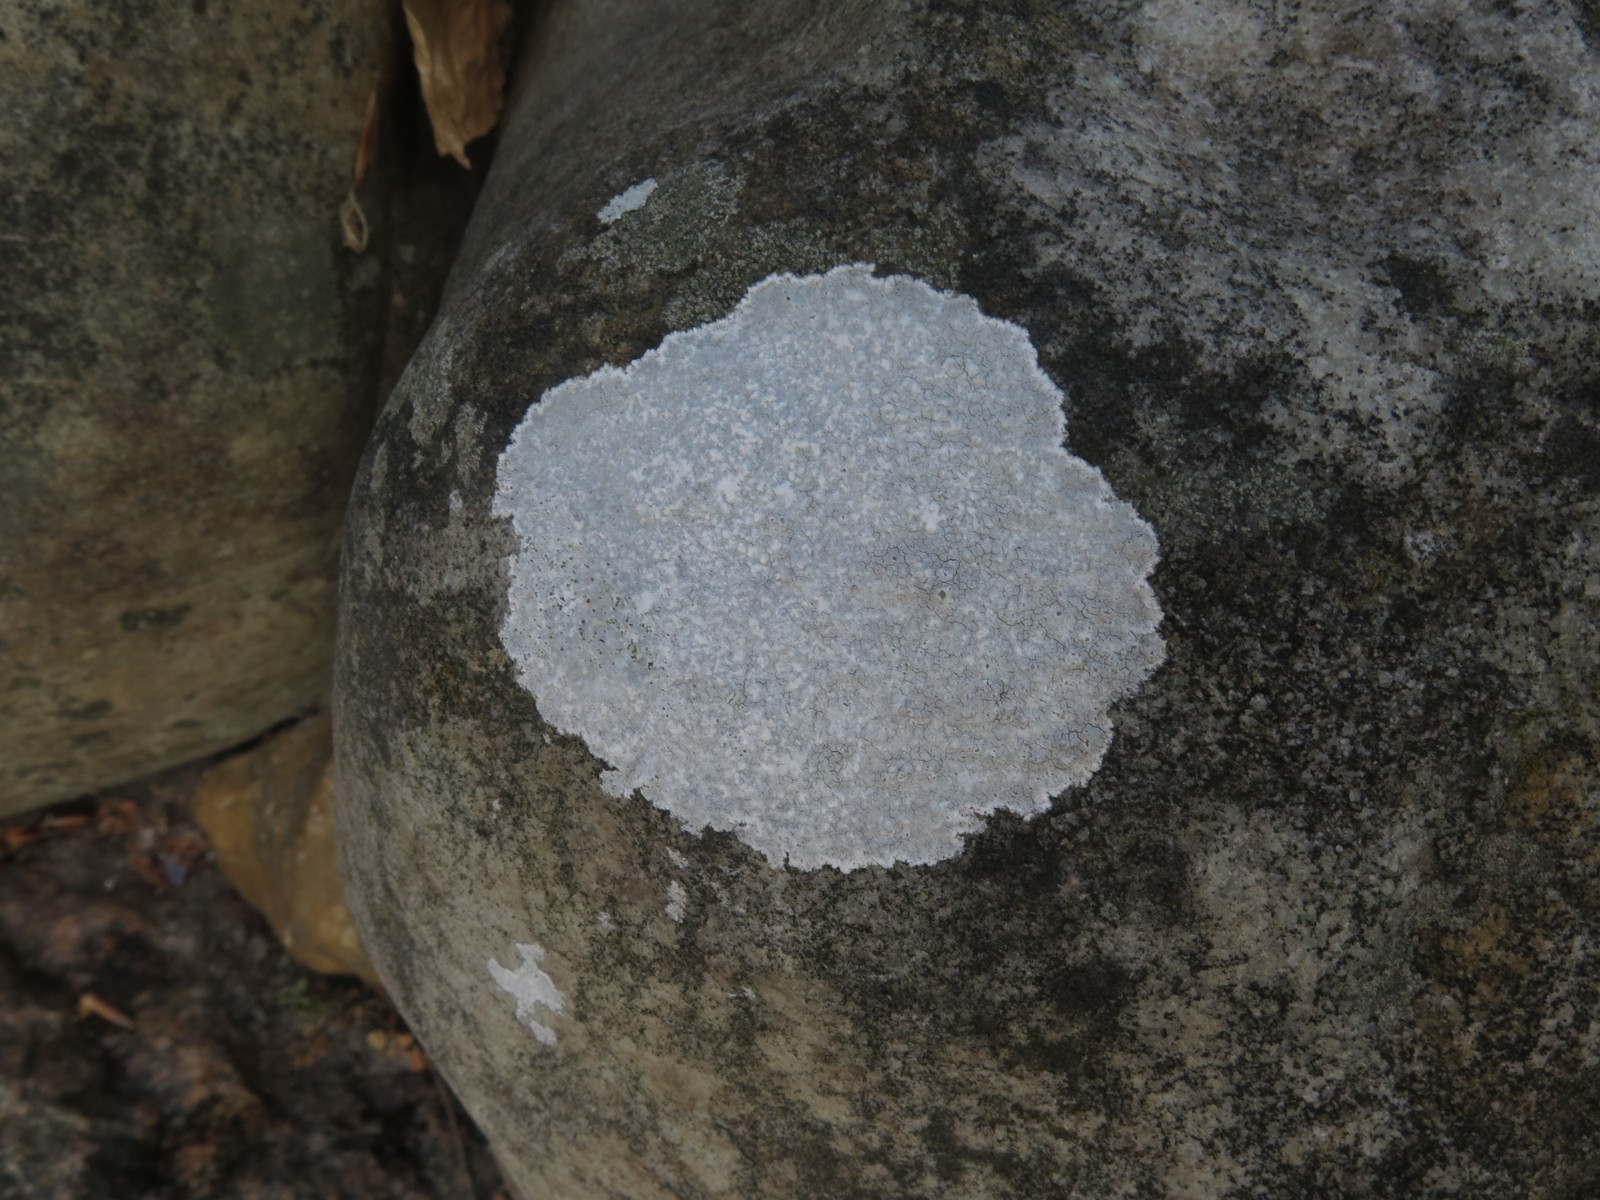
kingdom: Fungi
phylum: Ascomycota
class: Lecanoromycetes
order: Lecanorales
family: Lecanoraceae
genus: Glaucomaria
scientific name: Glaucomaria rupicola
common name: stengærde-kantskivelav
